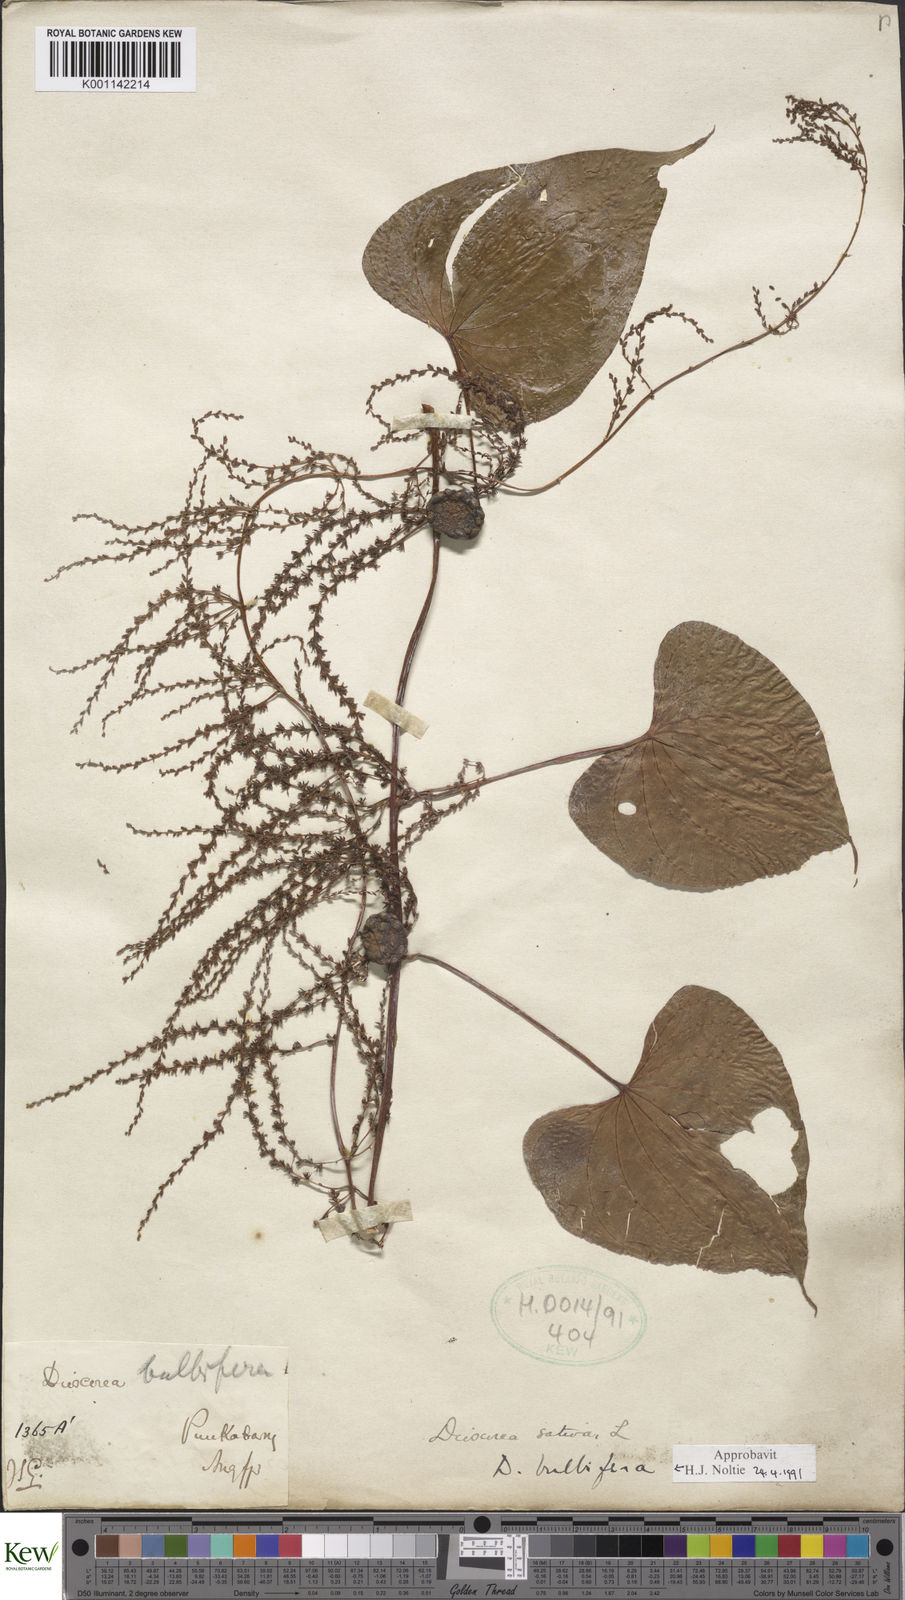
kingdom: Plantae
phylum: Tracheophyta
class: Liliopsida
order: Dioscoreales
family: Dioscoreaceae
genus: Dioscorea
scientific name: Dioscorea bulbifera
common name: Air yam
